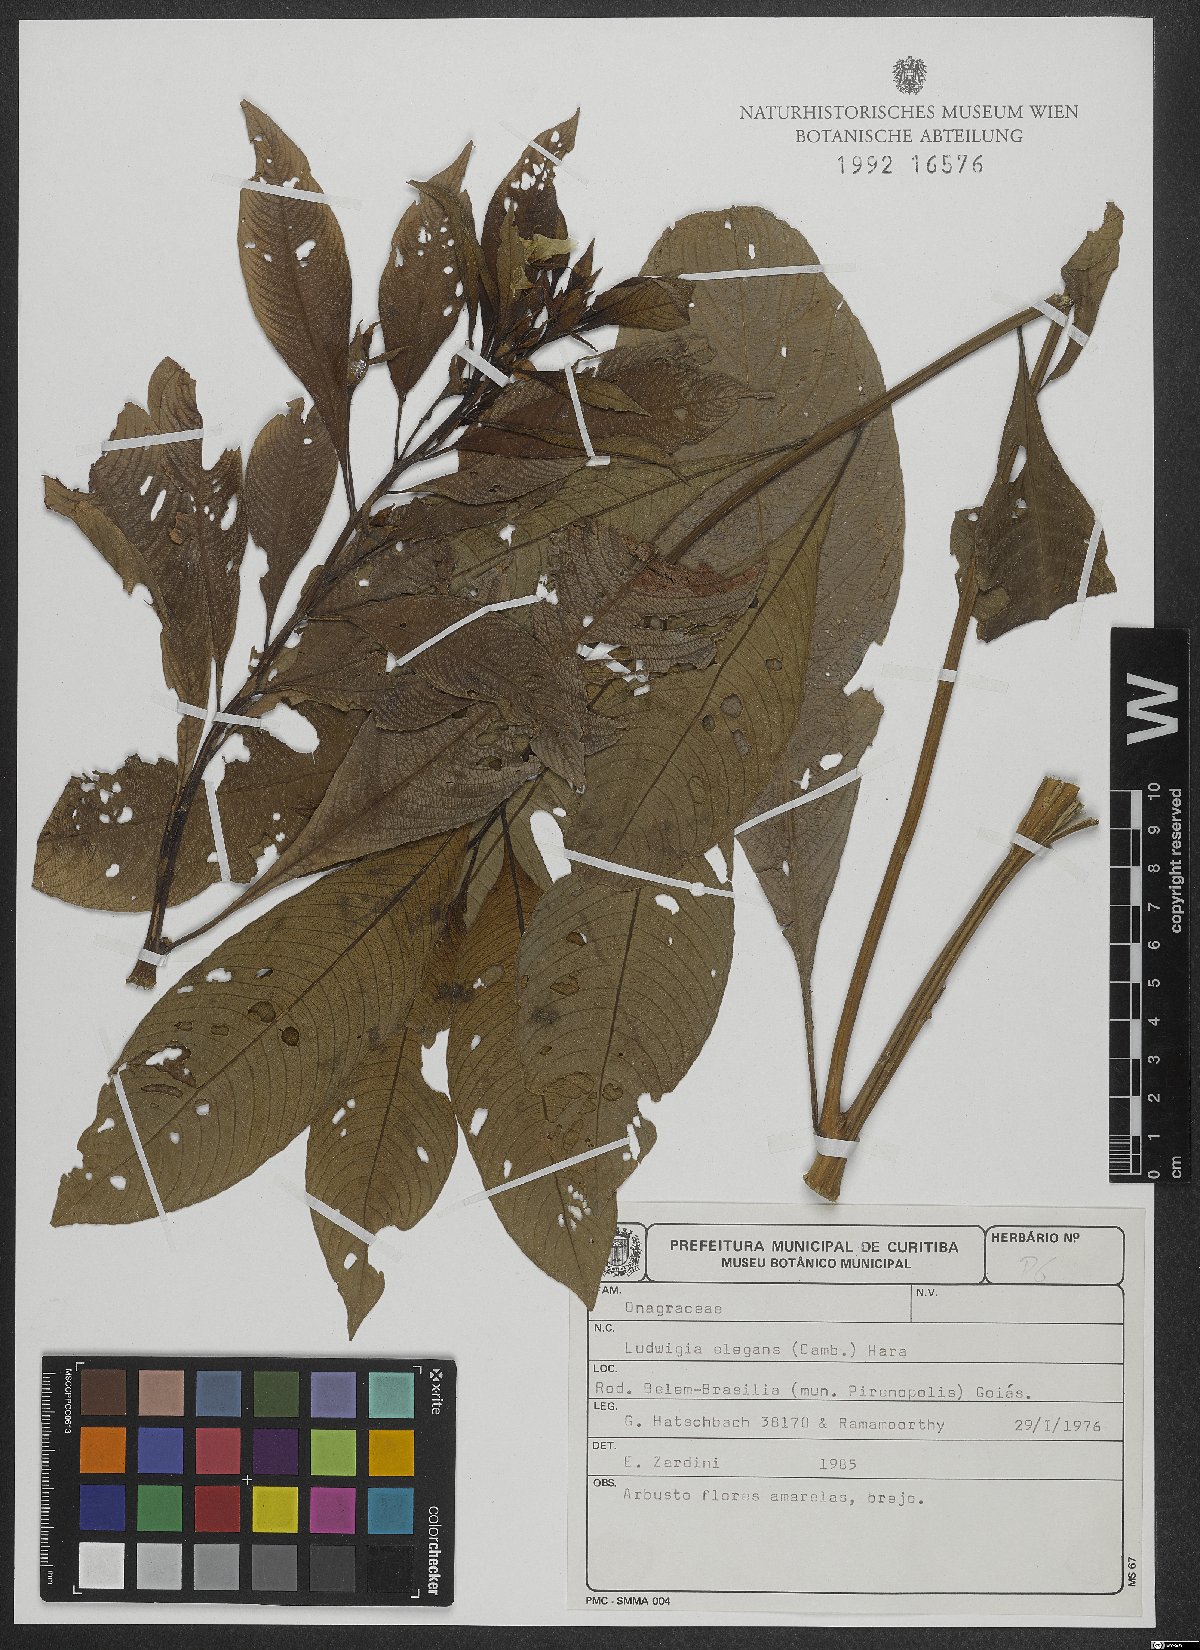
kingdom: Plantae
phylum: Tracheophyta
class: Magnoliopsida
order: Myrtales
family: Onagraceae
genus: Ludwigia
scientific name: Ludwigia elegans
